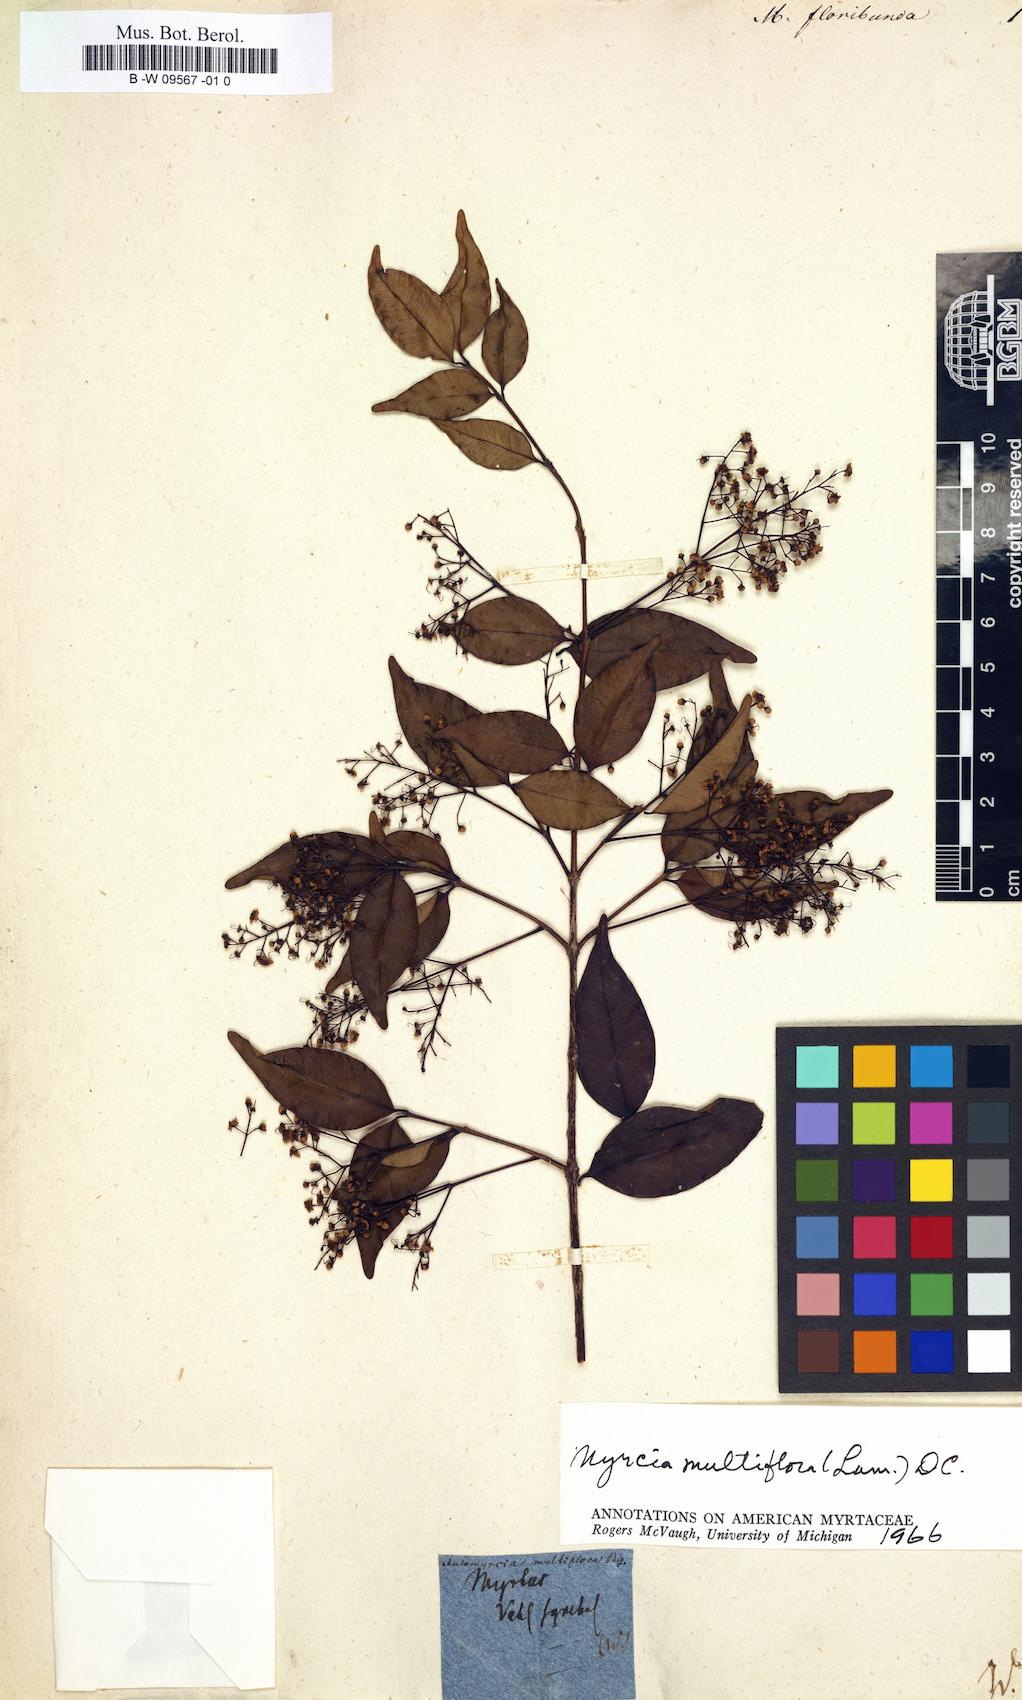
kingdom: Plantae
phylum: Tracheophyta
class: Magnoliopsida
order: Myrtales
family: Myrtaceae
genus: Myrciaria
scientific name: Myrciaria floribunda
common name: Guavaberry
